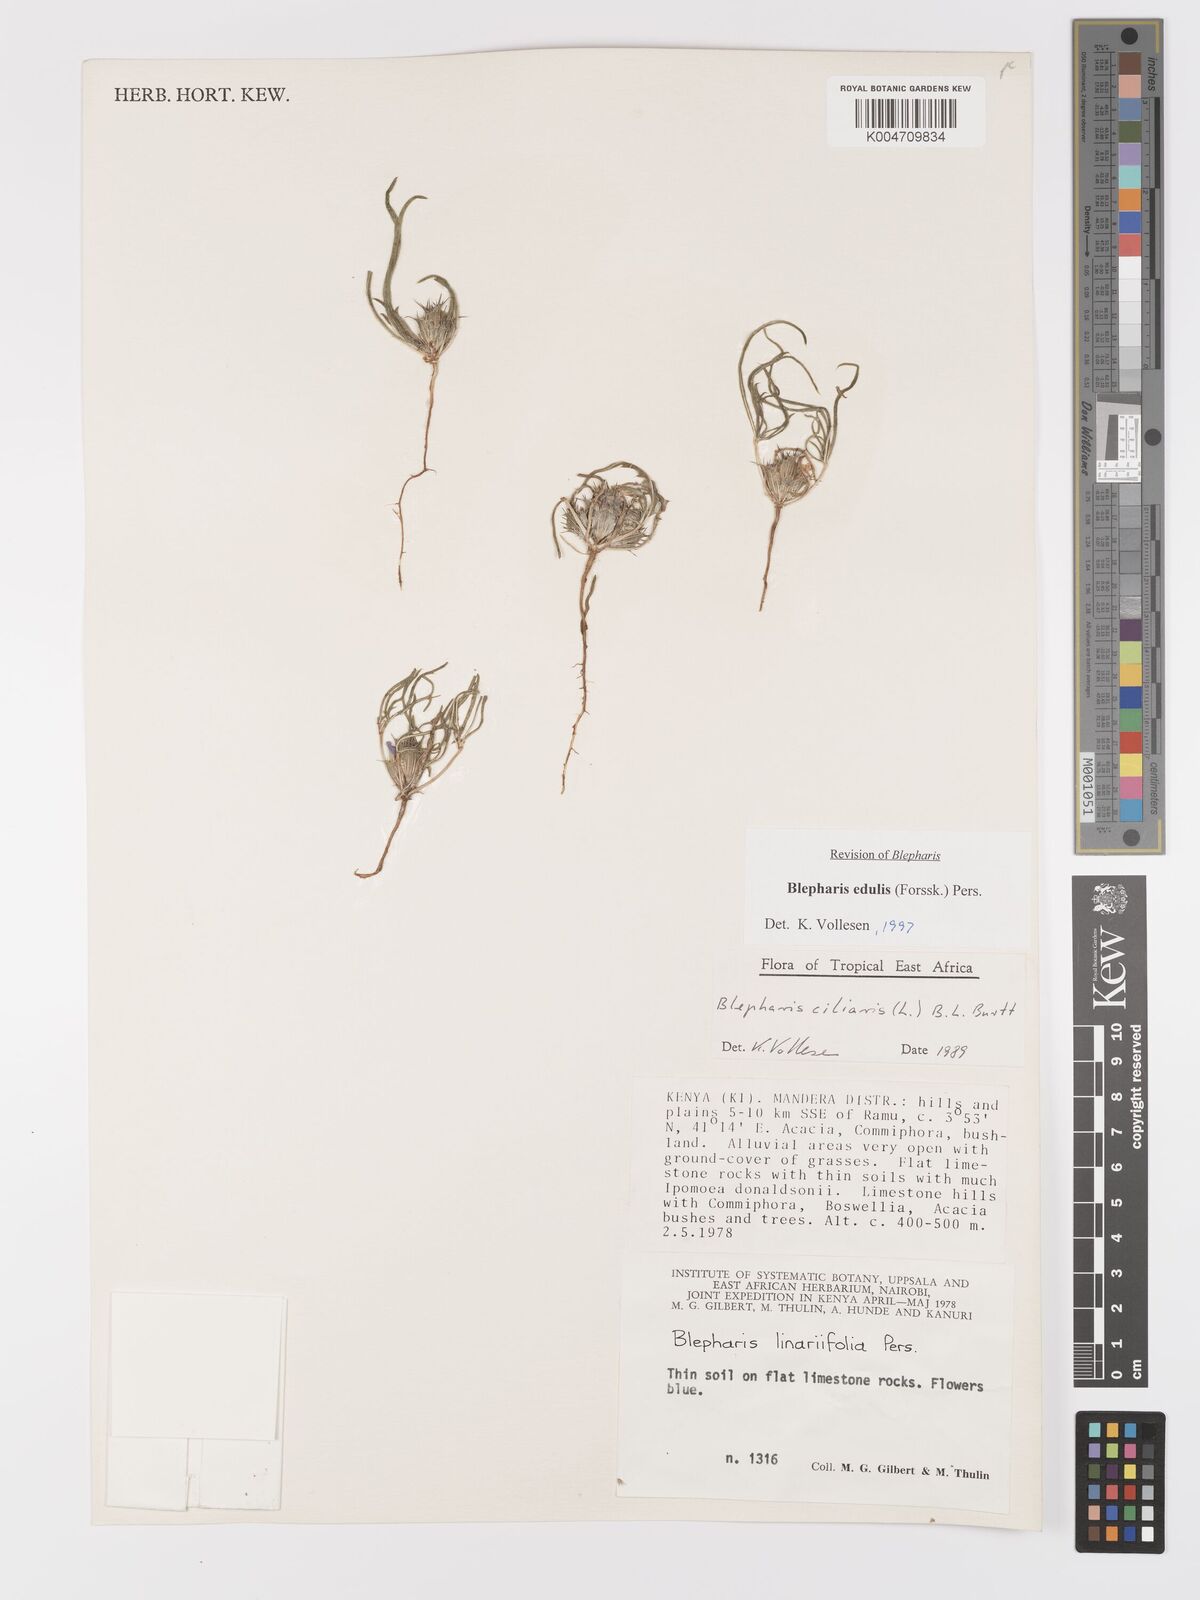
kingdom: Plantae
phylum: Tracheophyta
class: Magnoliopsida
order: Lamiales
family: Acanthaceae
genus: Blepharis
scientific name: Blepharis edulis
